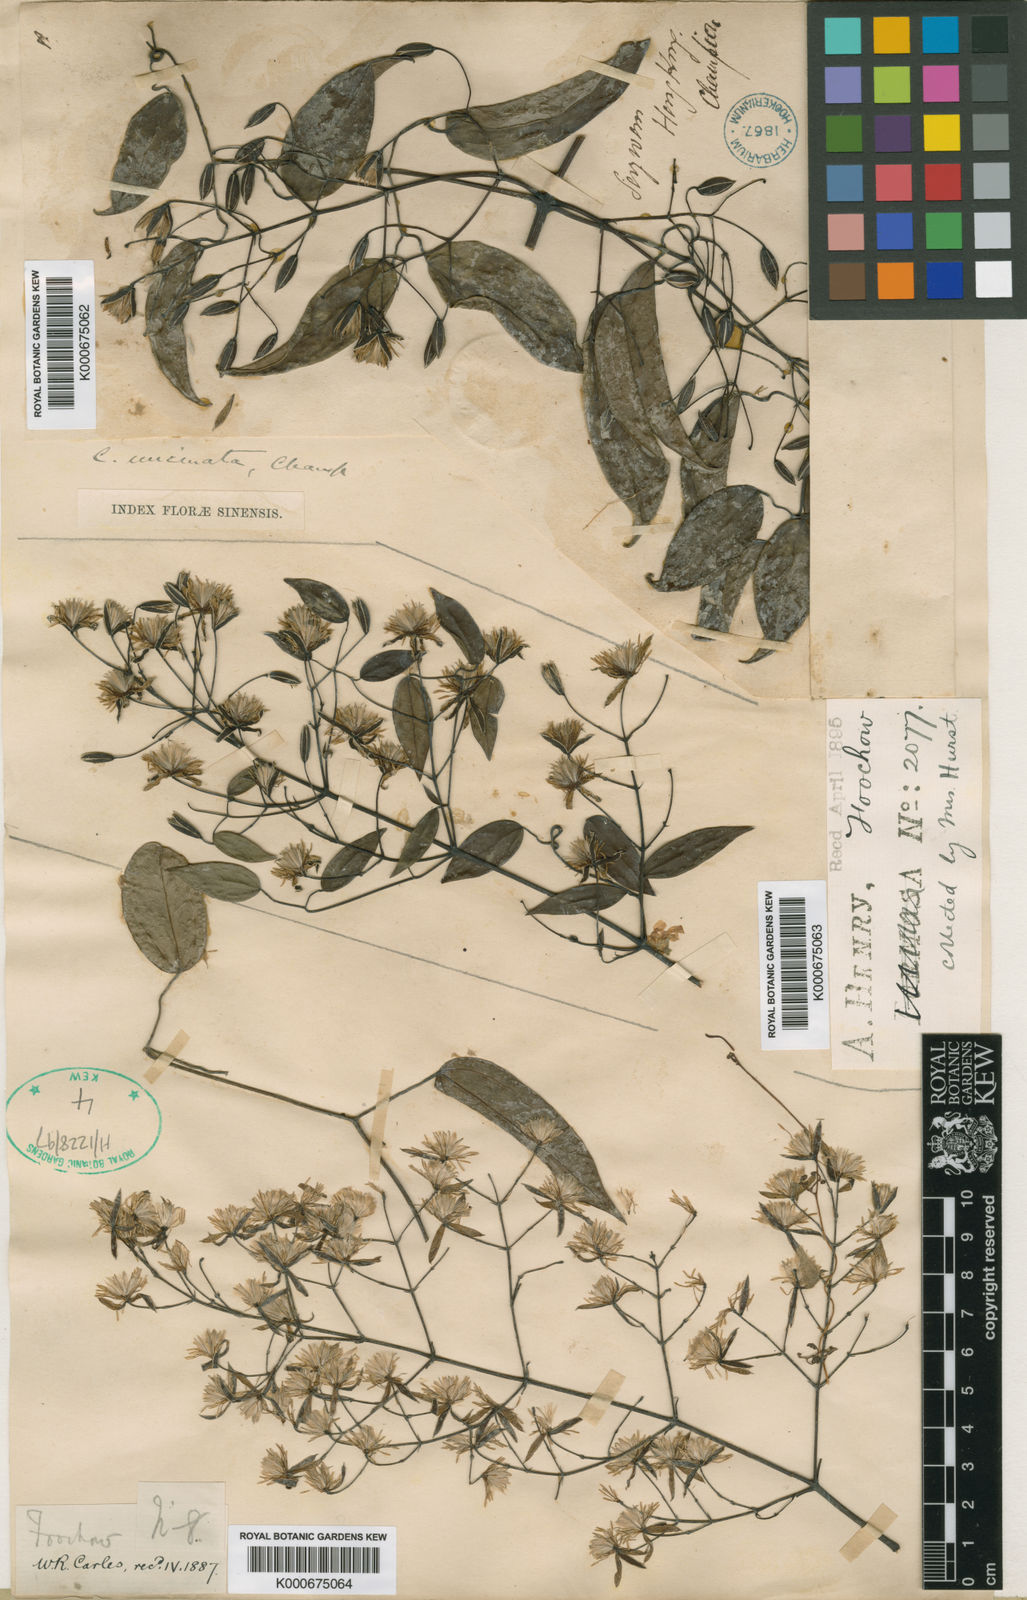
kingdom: Plantae
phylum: Tracheophyta
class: Magnoliopsida
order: Ranunculales
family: Ranunculaceae
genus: Clematis
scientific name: Clematis uncinata
